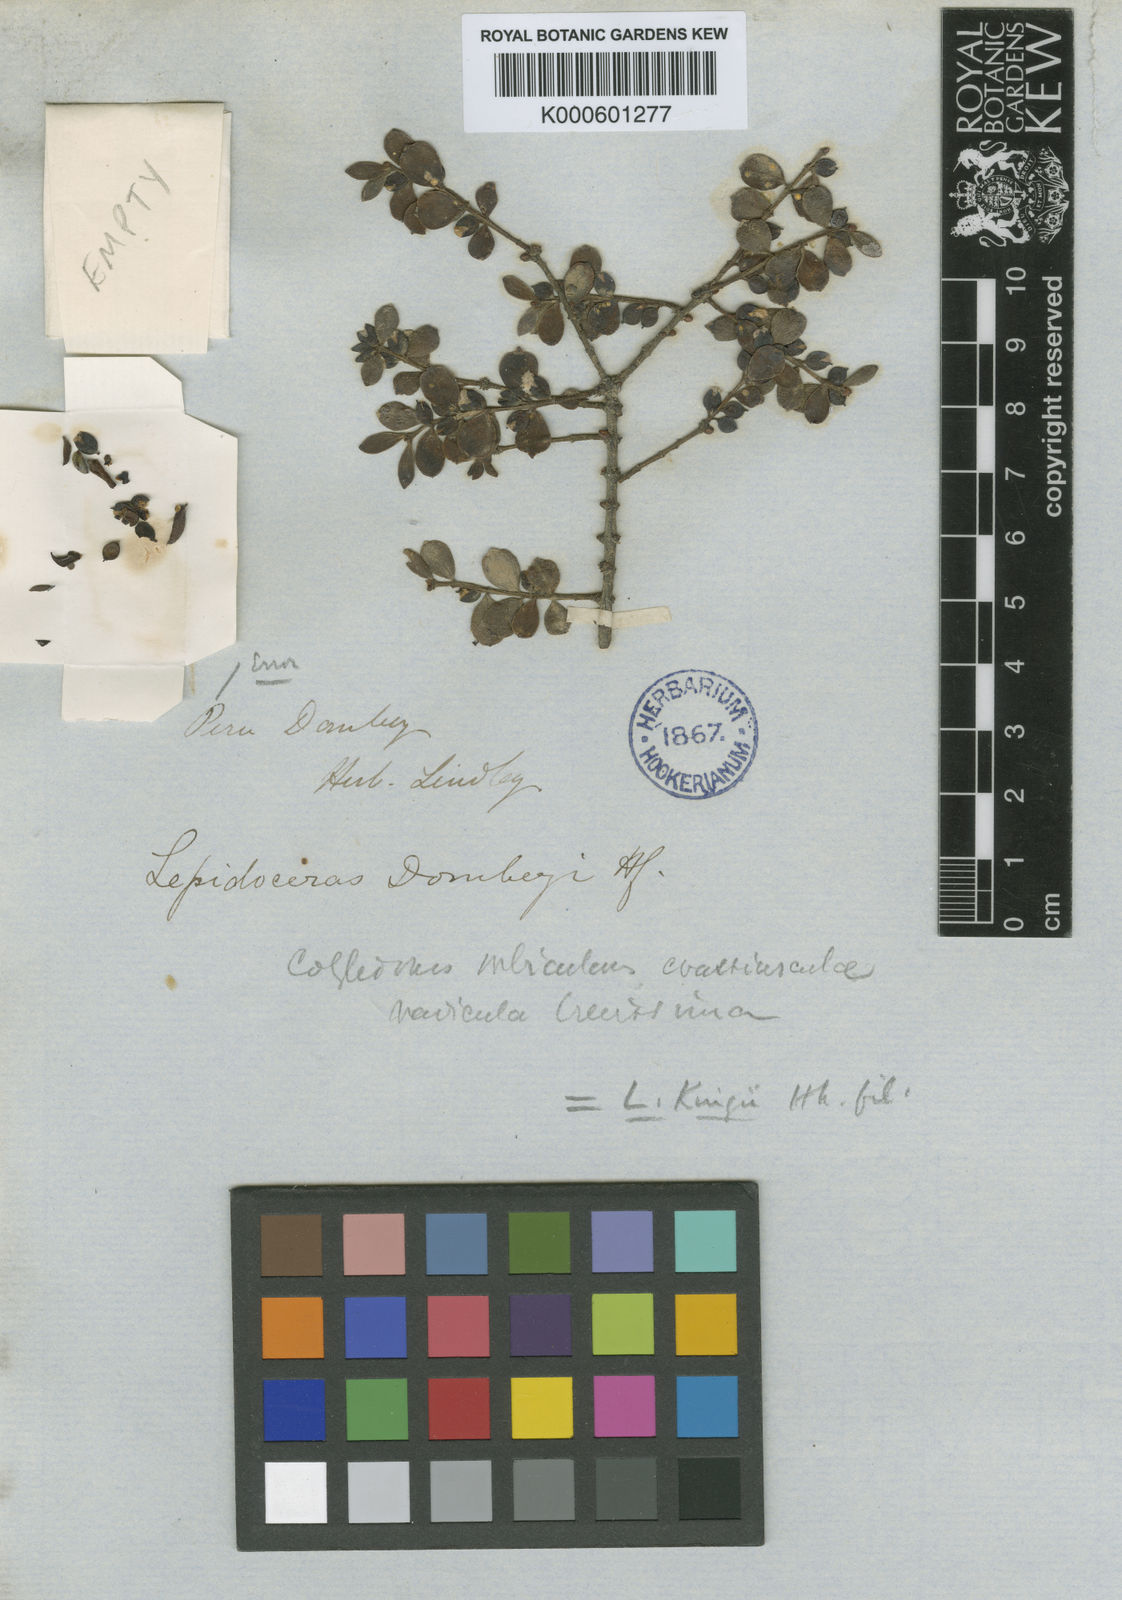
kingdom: Plantae
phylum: Tracheophyta
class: Magnoliopsida
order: Santalales
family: Santalaceae
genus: Lepidoceras
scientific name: Lepidoceras chilense
